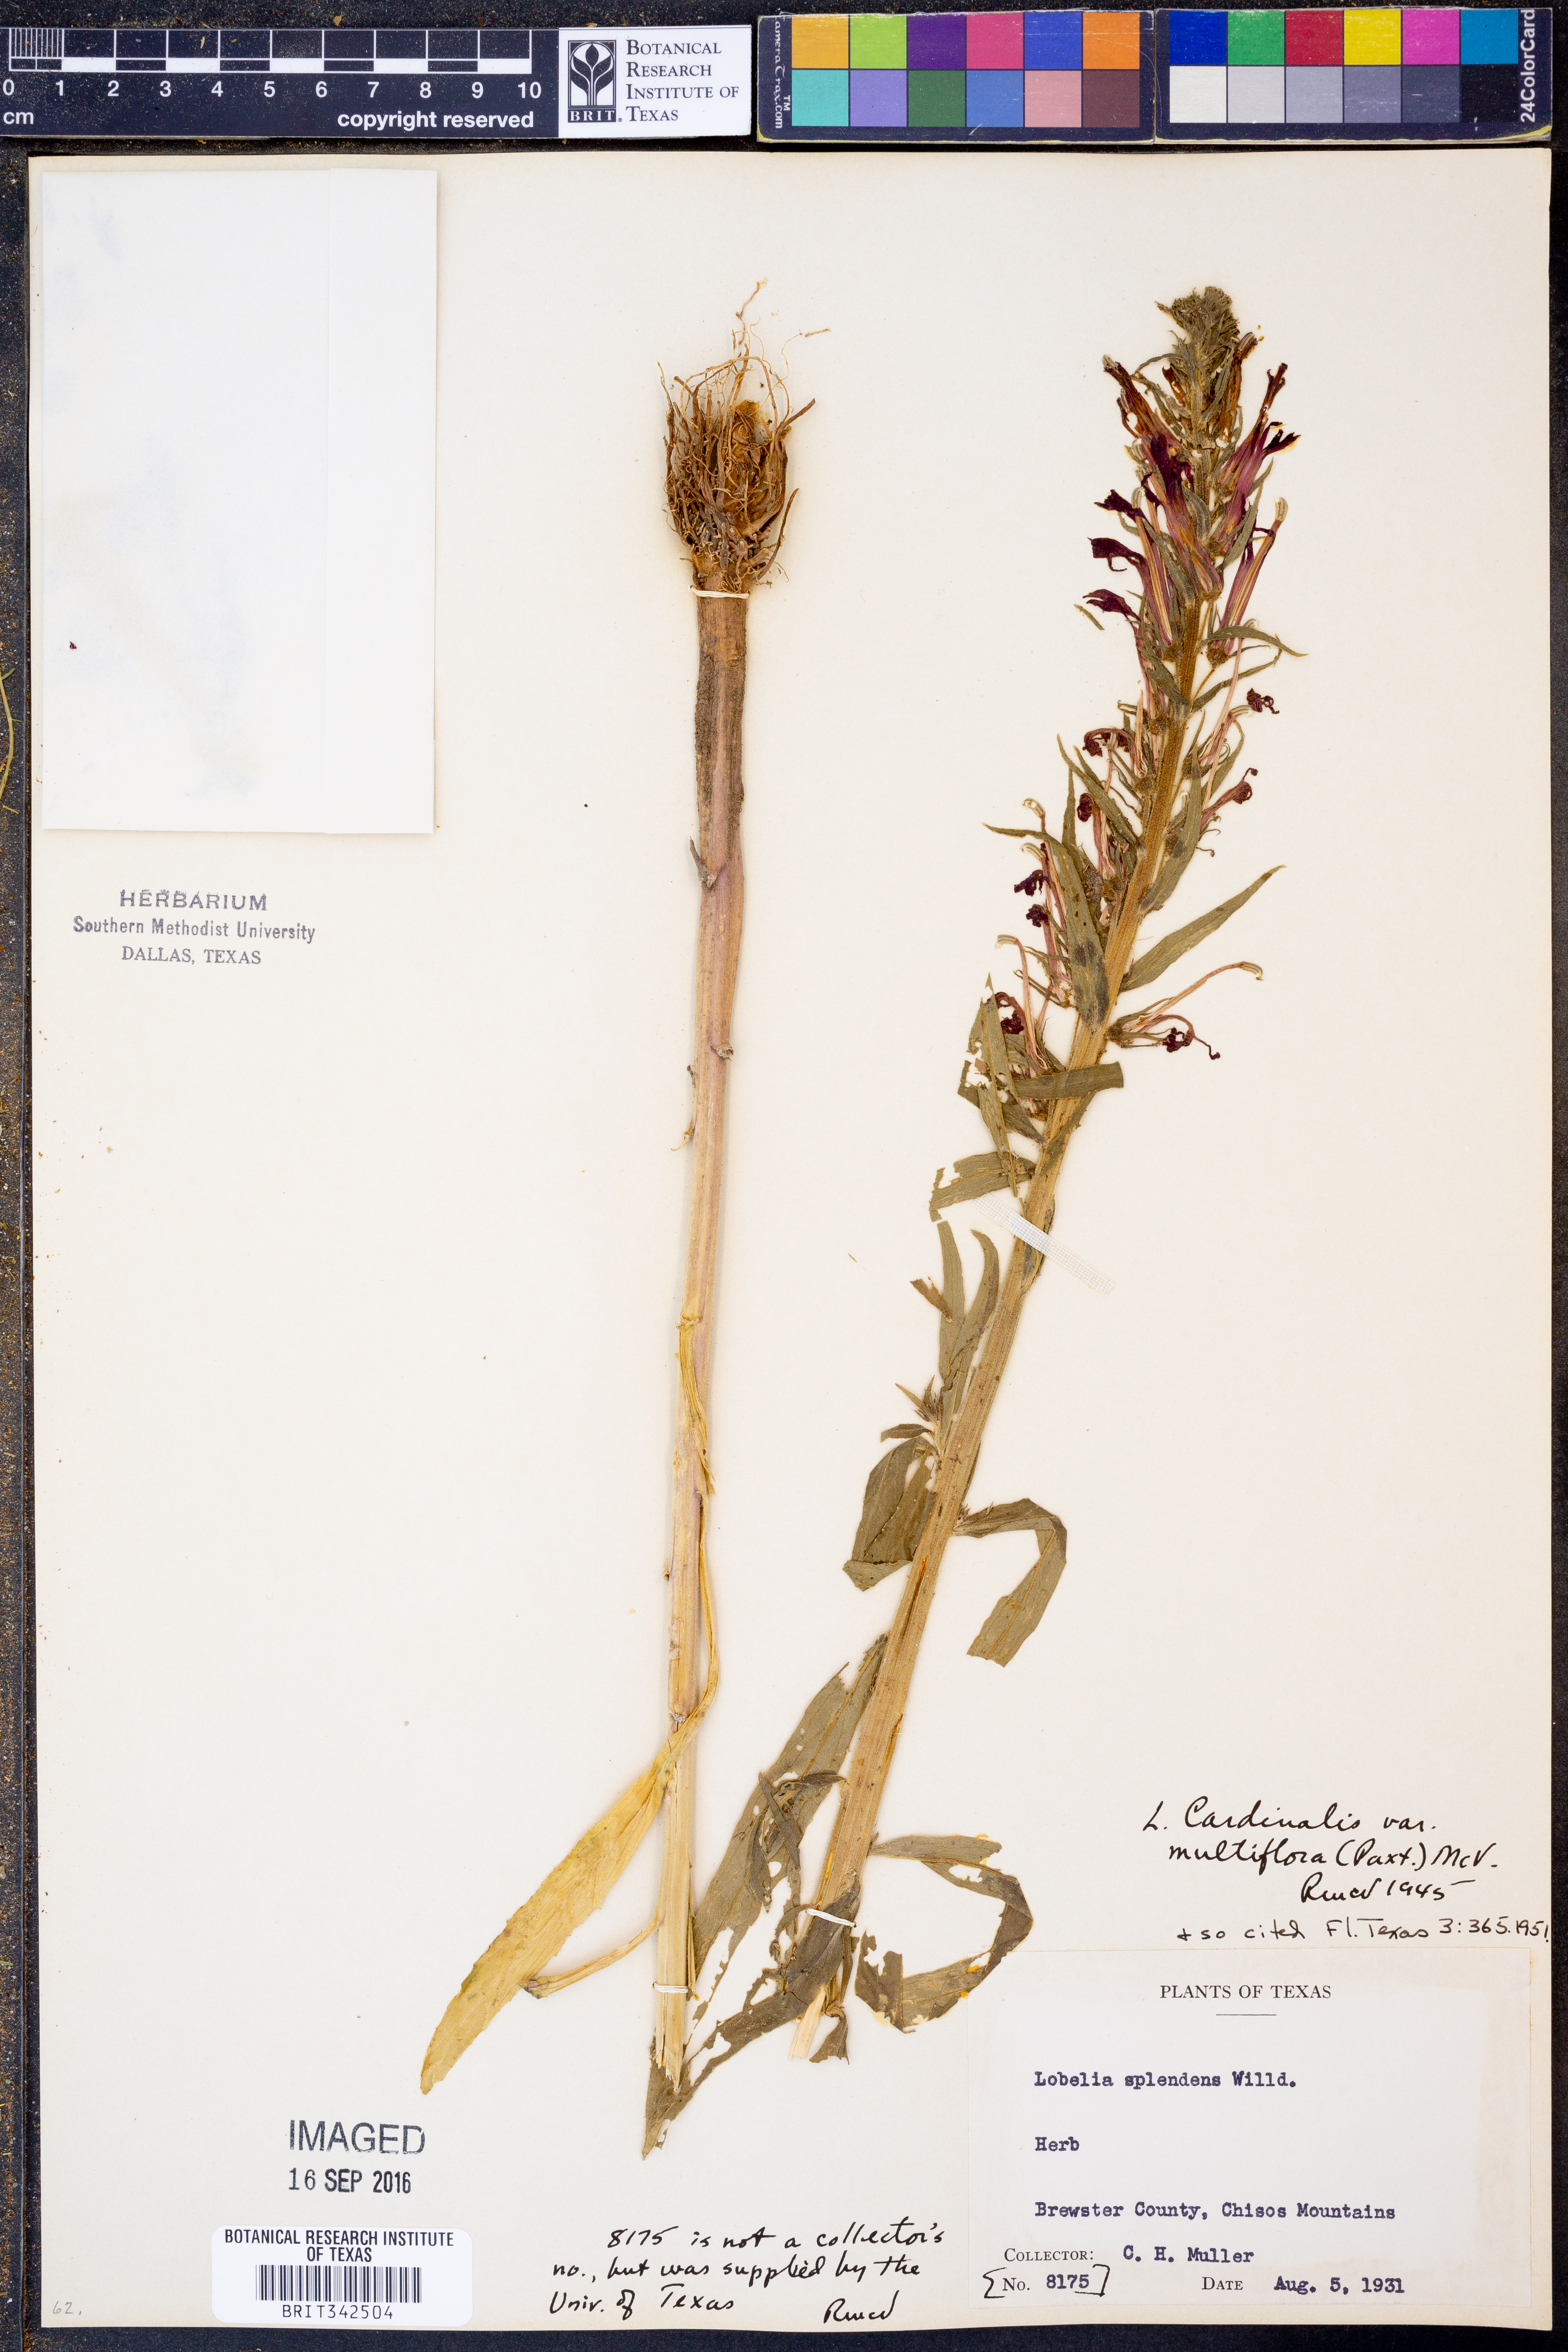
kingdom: Plantae
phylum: Tracheophyta
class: Magnoliopsida
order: Asterales
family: Campanulaceae
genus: Lobelia
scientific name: Lobelia cardinalis
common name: Cardinal flower
